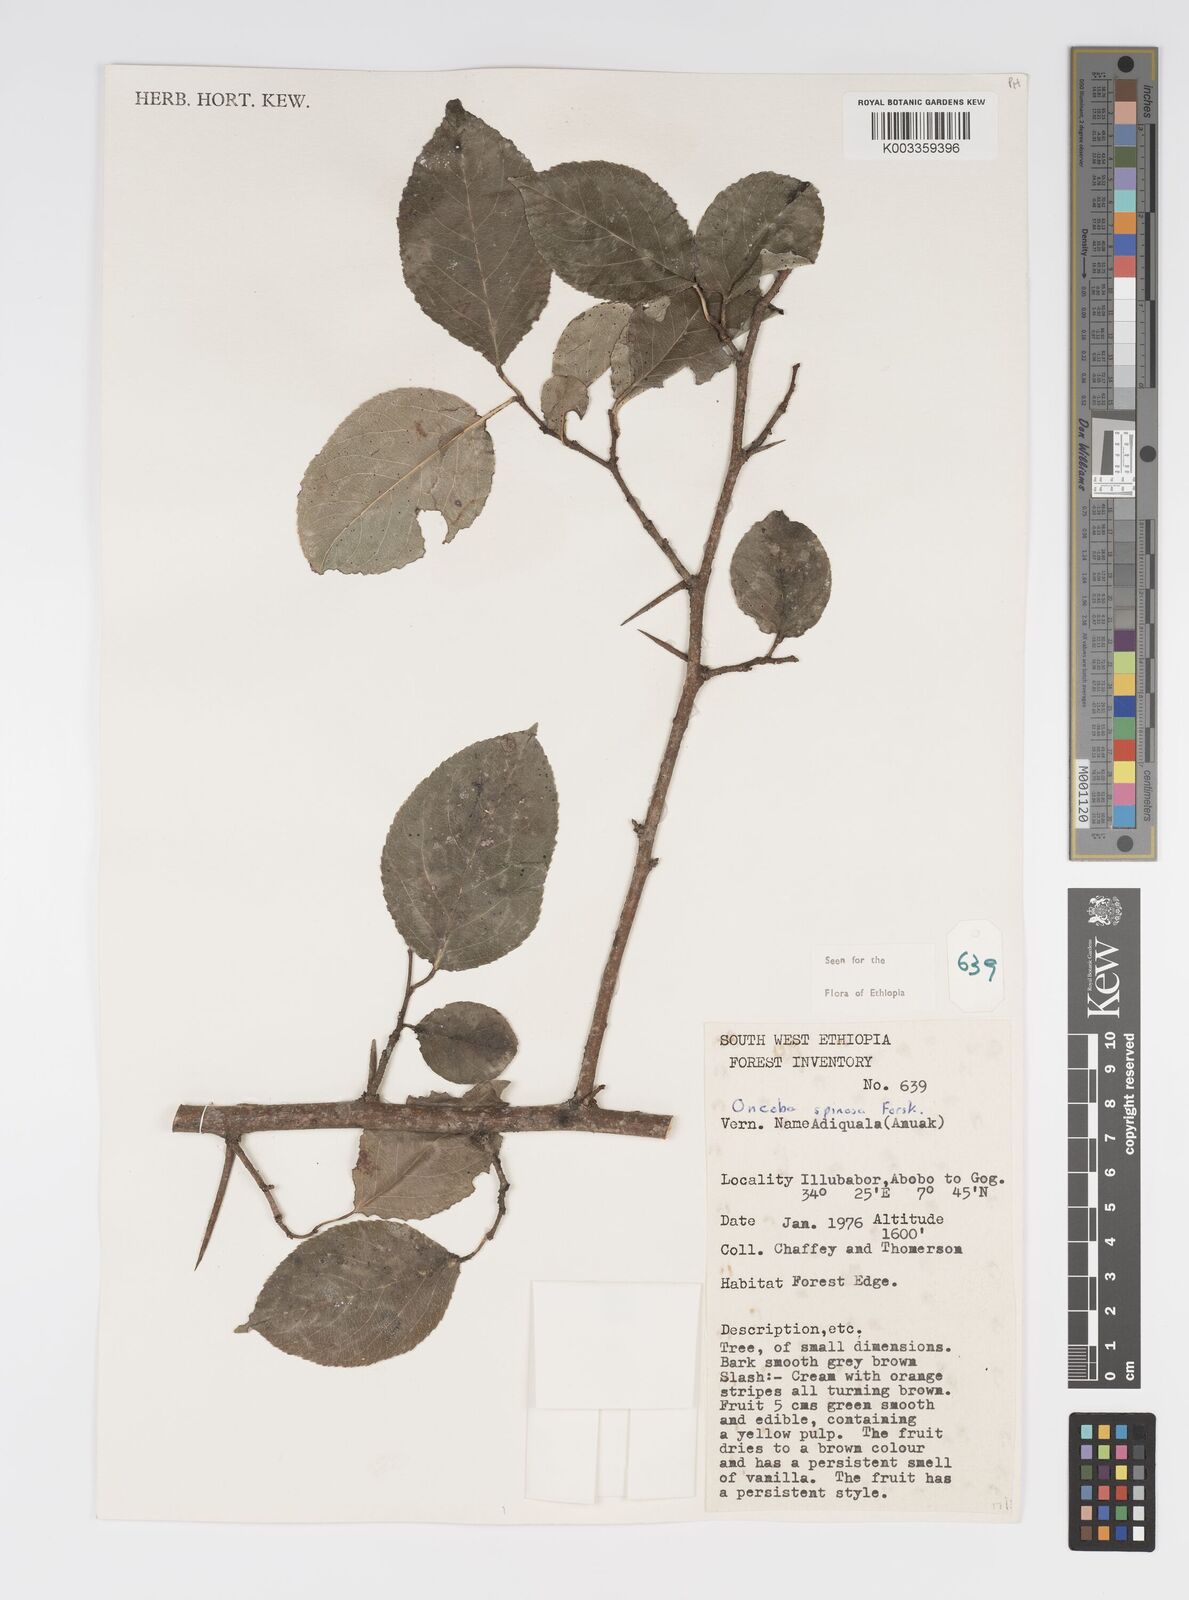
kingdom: Plantae
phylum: Tracheophyta
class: Magnoliopsida
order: Malpighiales
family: Salicaceae
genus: Oncoba
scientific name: Oncoba spinosa
